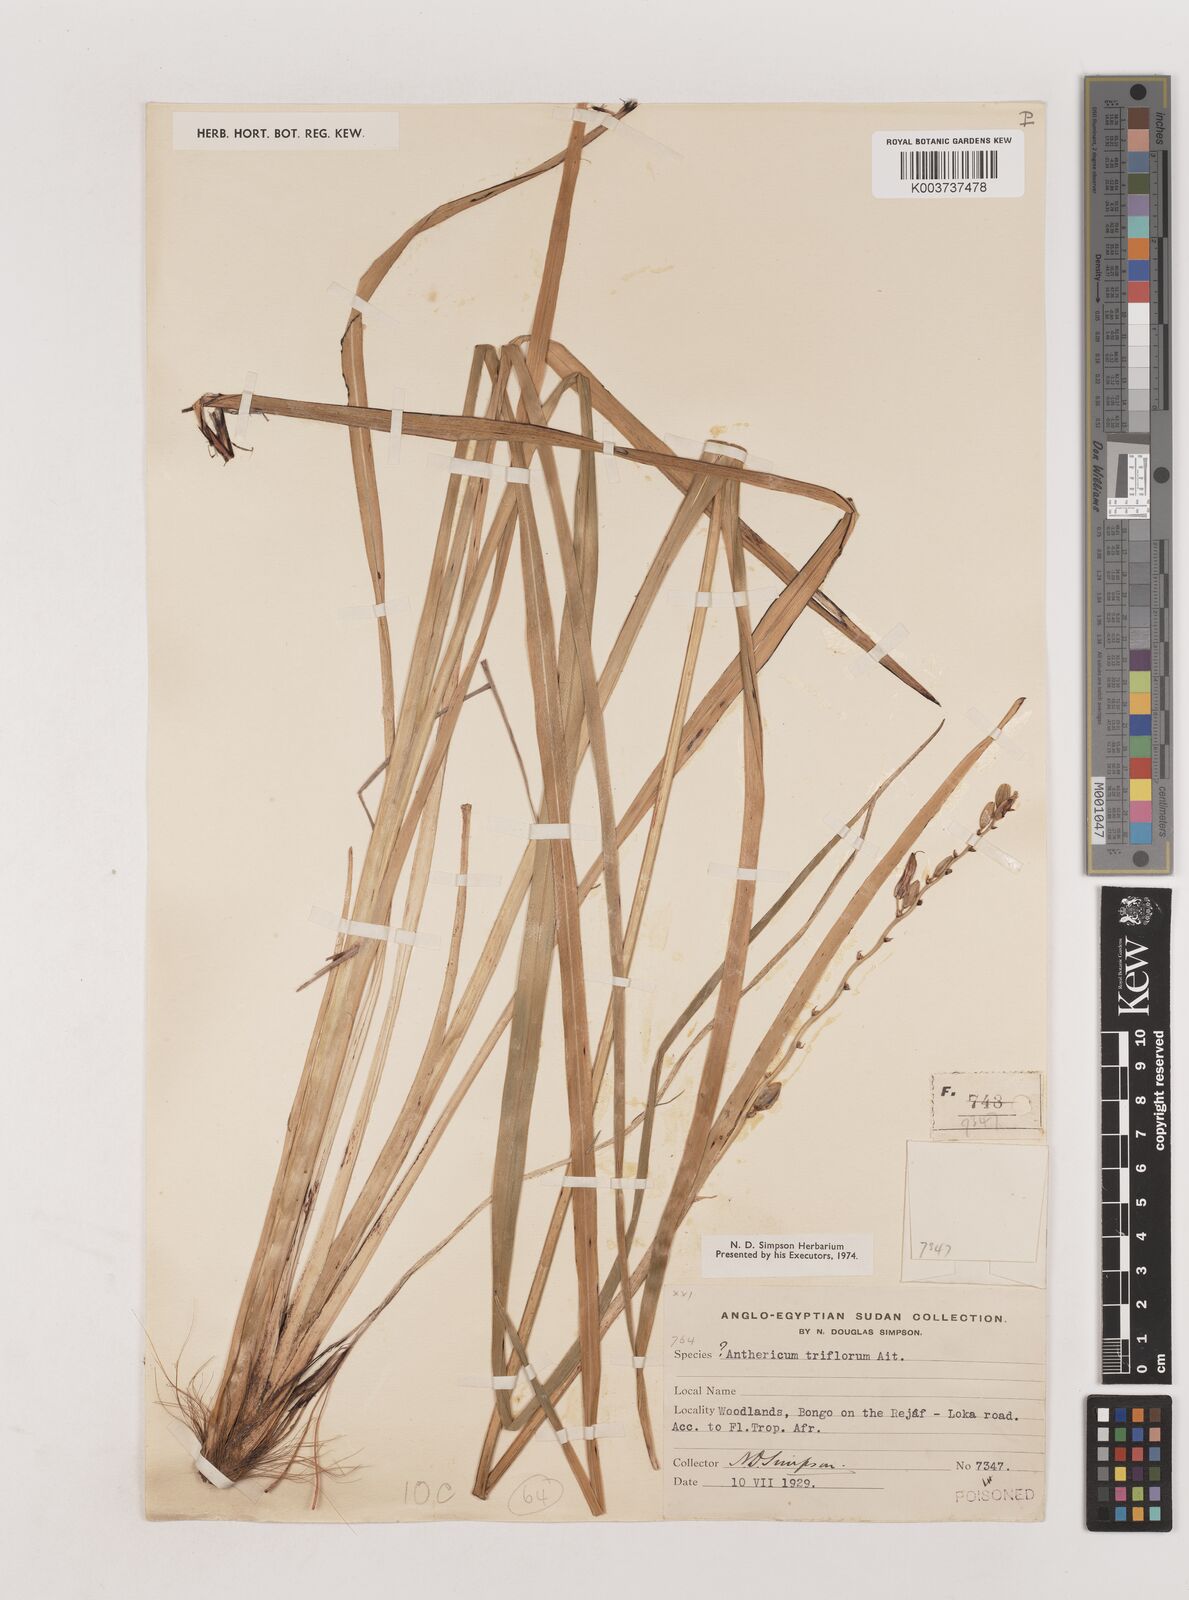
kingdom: Plantae
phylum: Tracheophyta
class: Liliopsida
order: Asparagales
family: Asparagaceae
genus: Chlorophytum
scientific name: Chlorophytum cameronii
